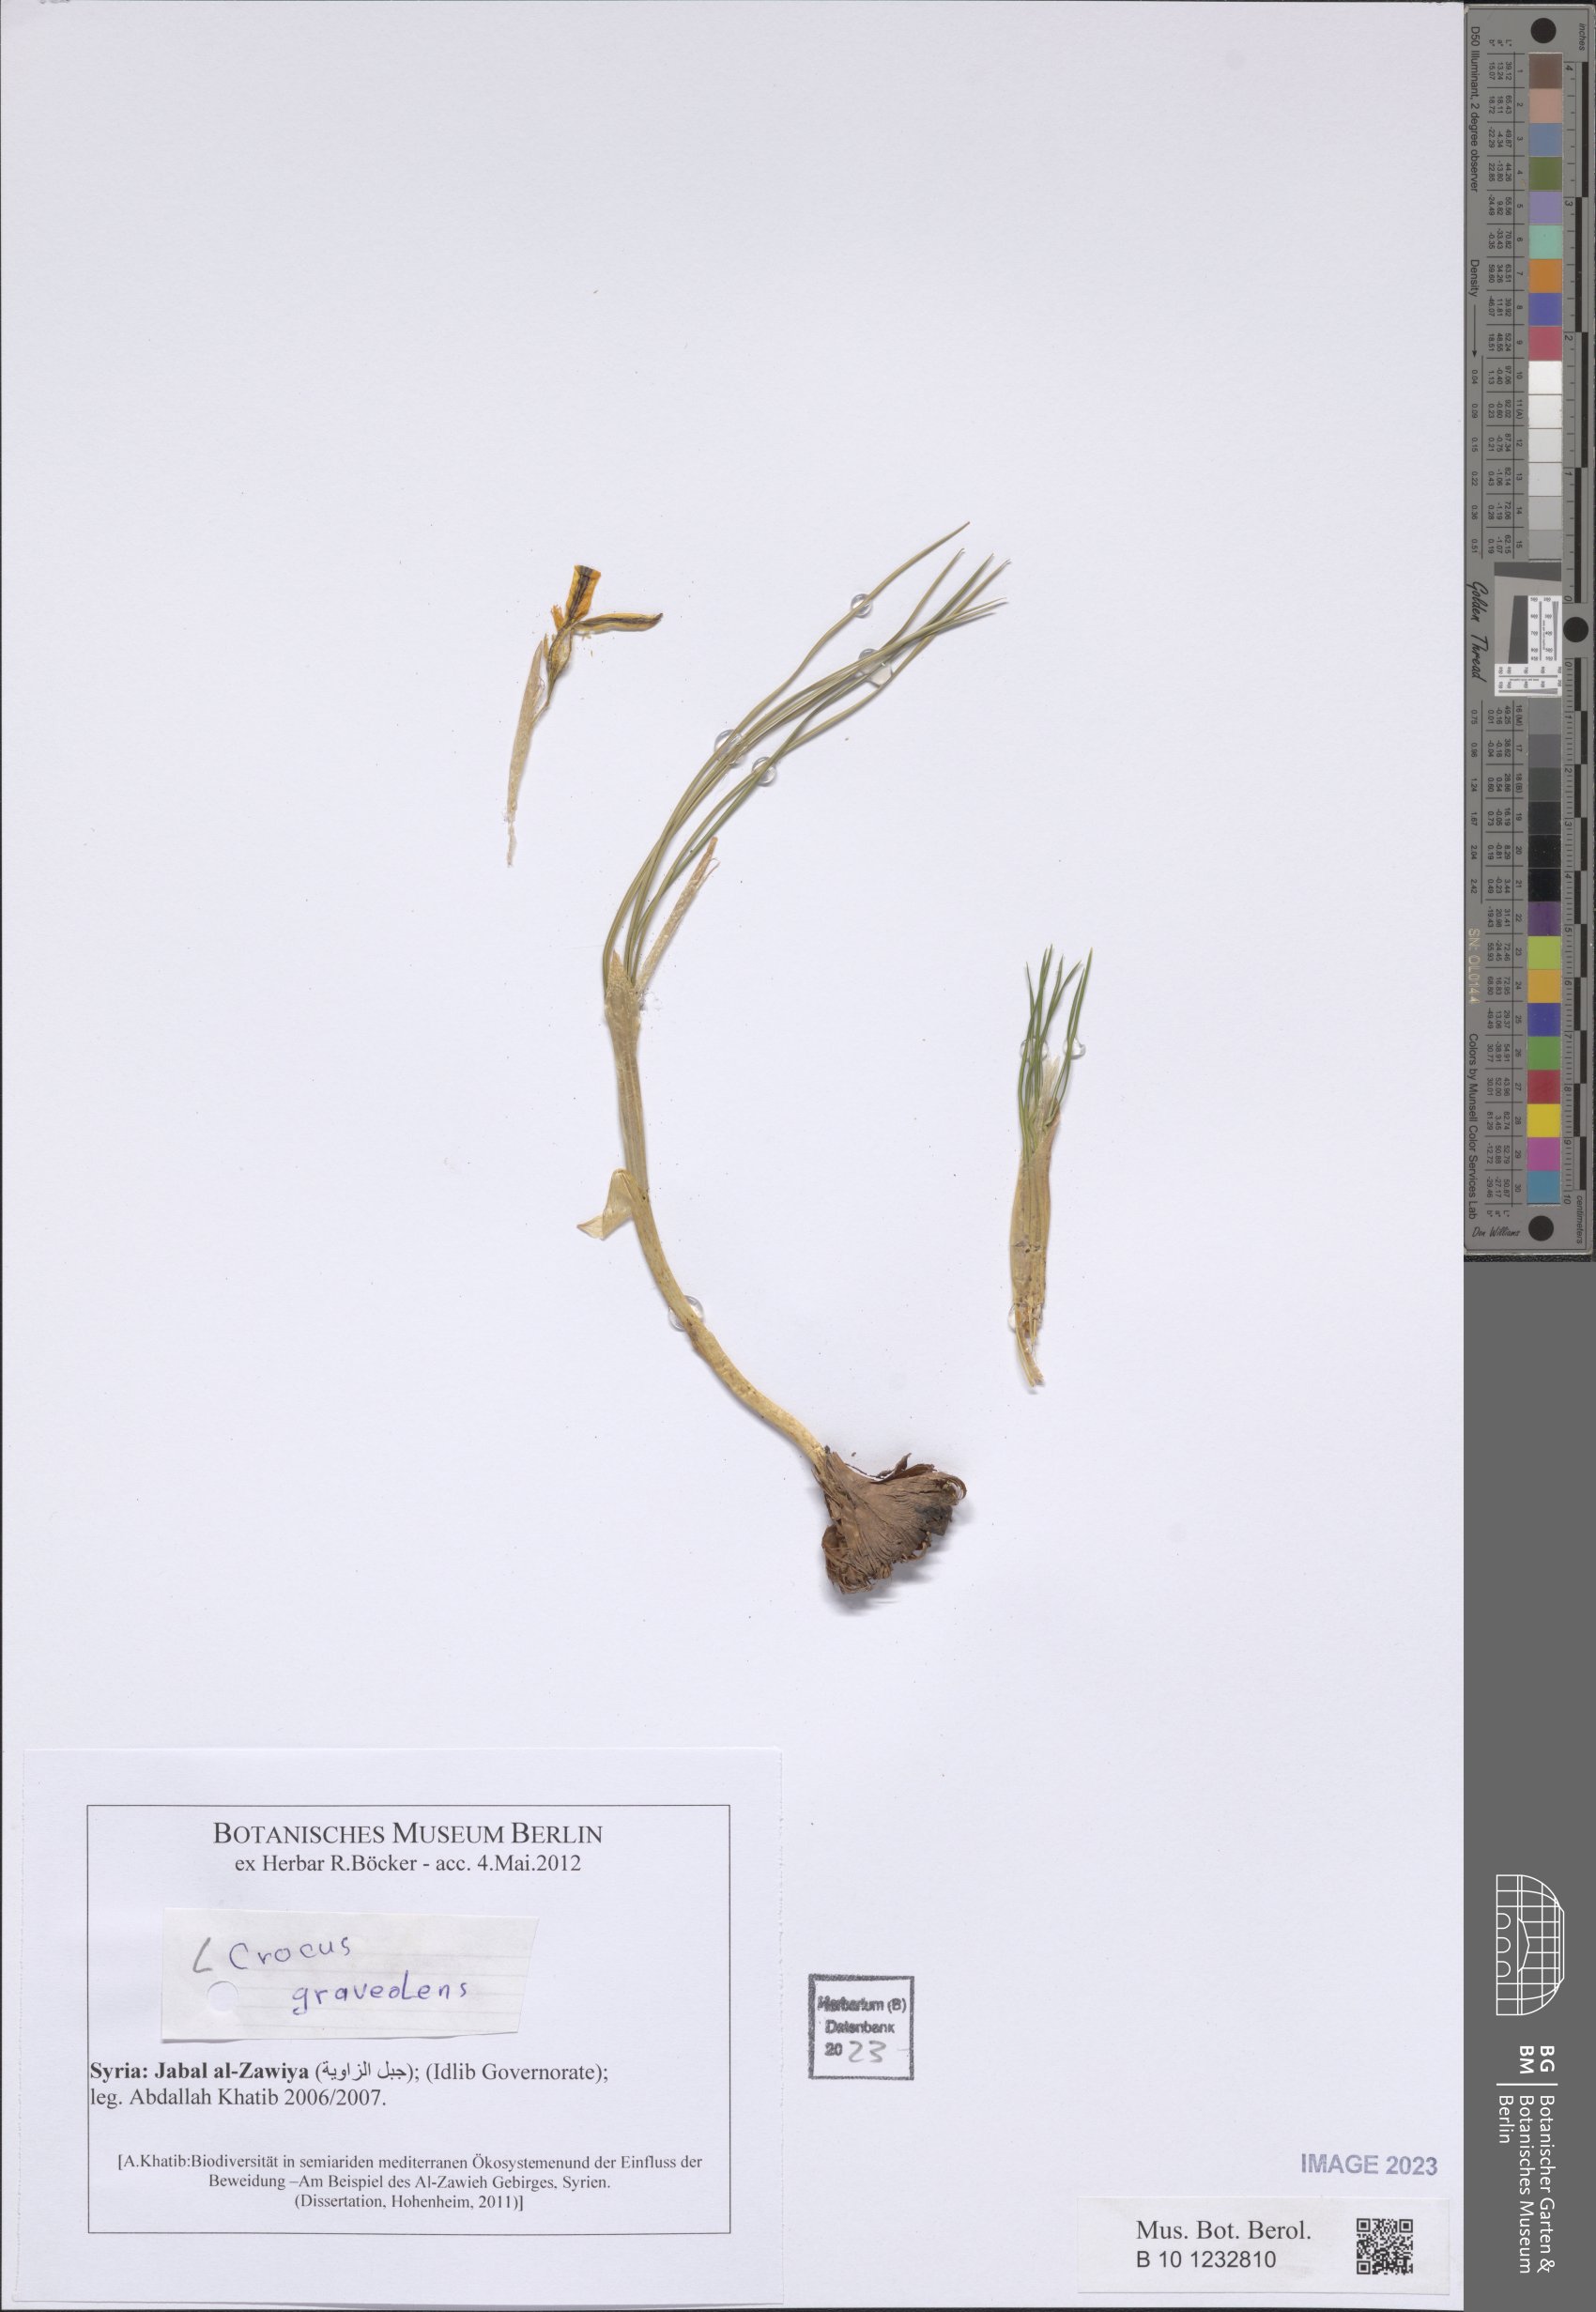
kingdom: Plantae
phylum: Tracheophyta
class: Liliopsida
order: Asparagales
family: Iridaceae
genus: Crocus
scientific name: Crocus graveolens
